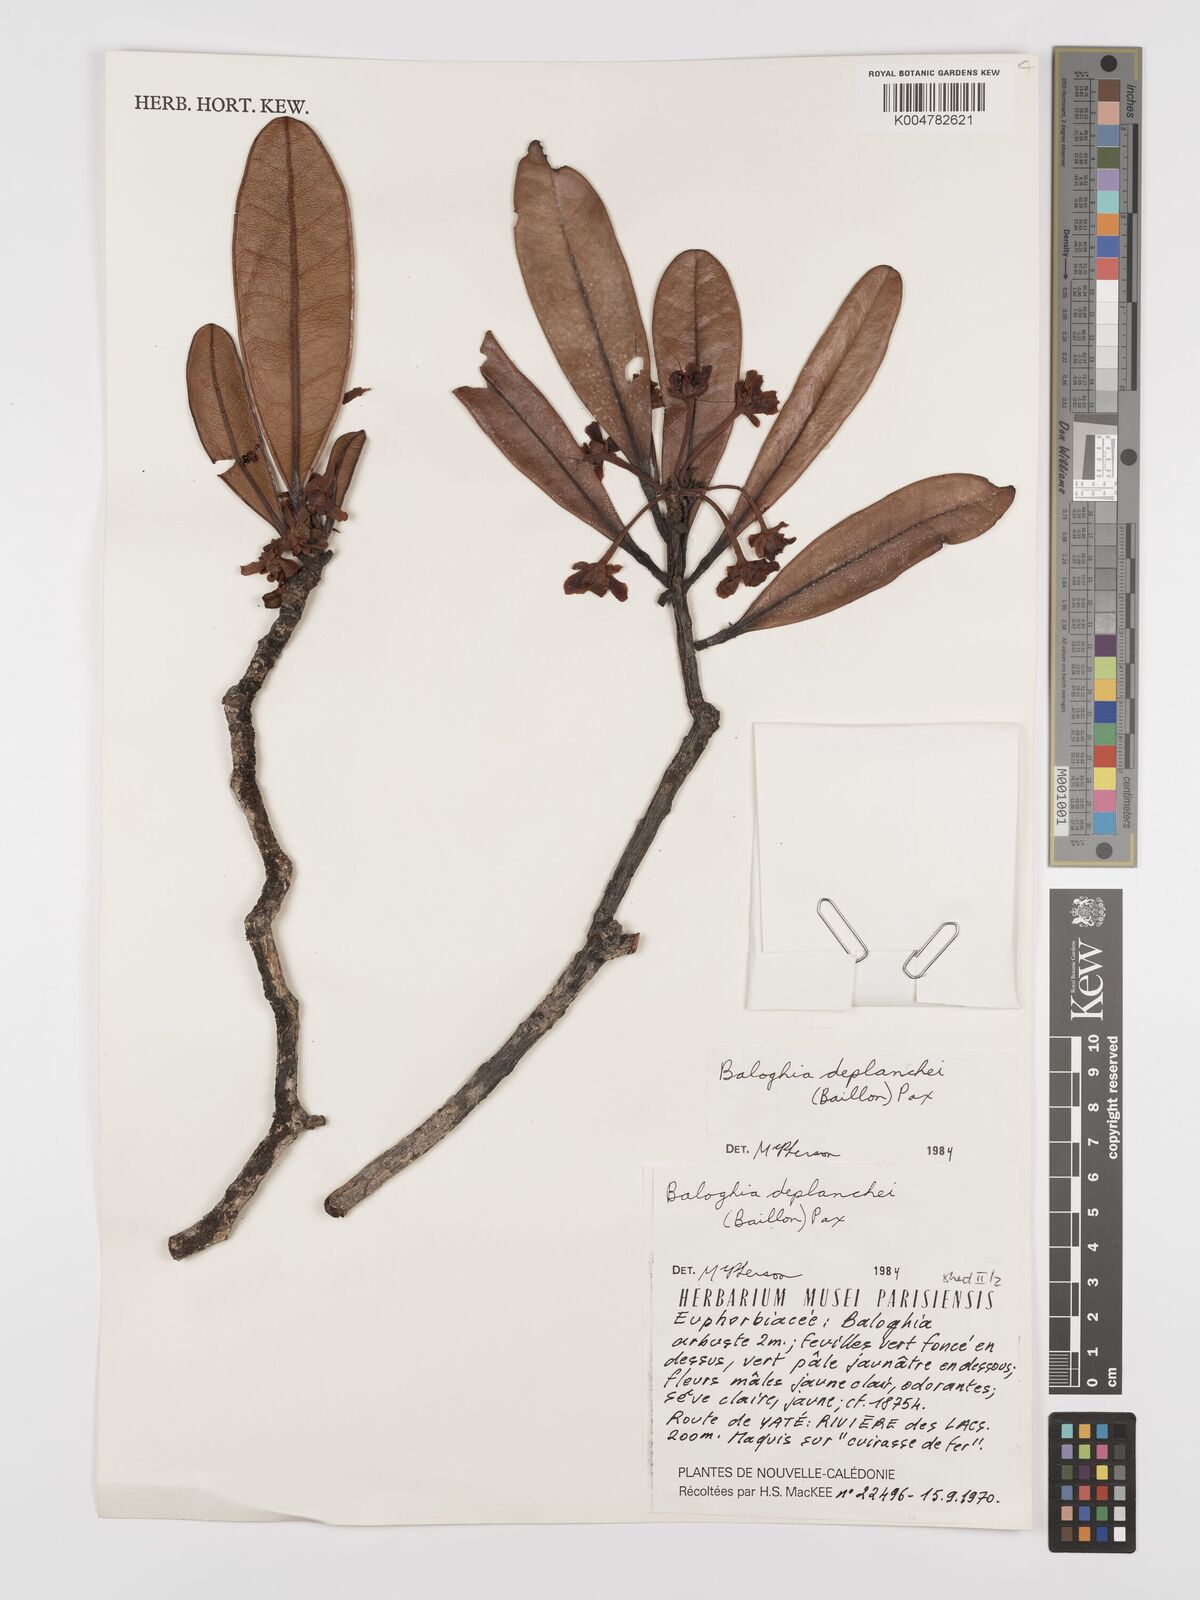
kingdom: Plantae
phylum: Tracheophyta
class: Magnoliopsida
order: Malpighiales
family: Euphorbiaceae
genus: Baloghia
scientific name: Baloghia deplanchei
